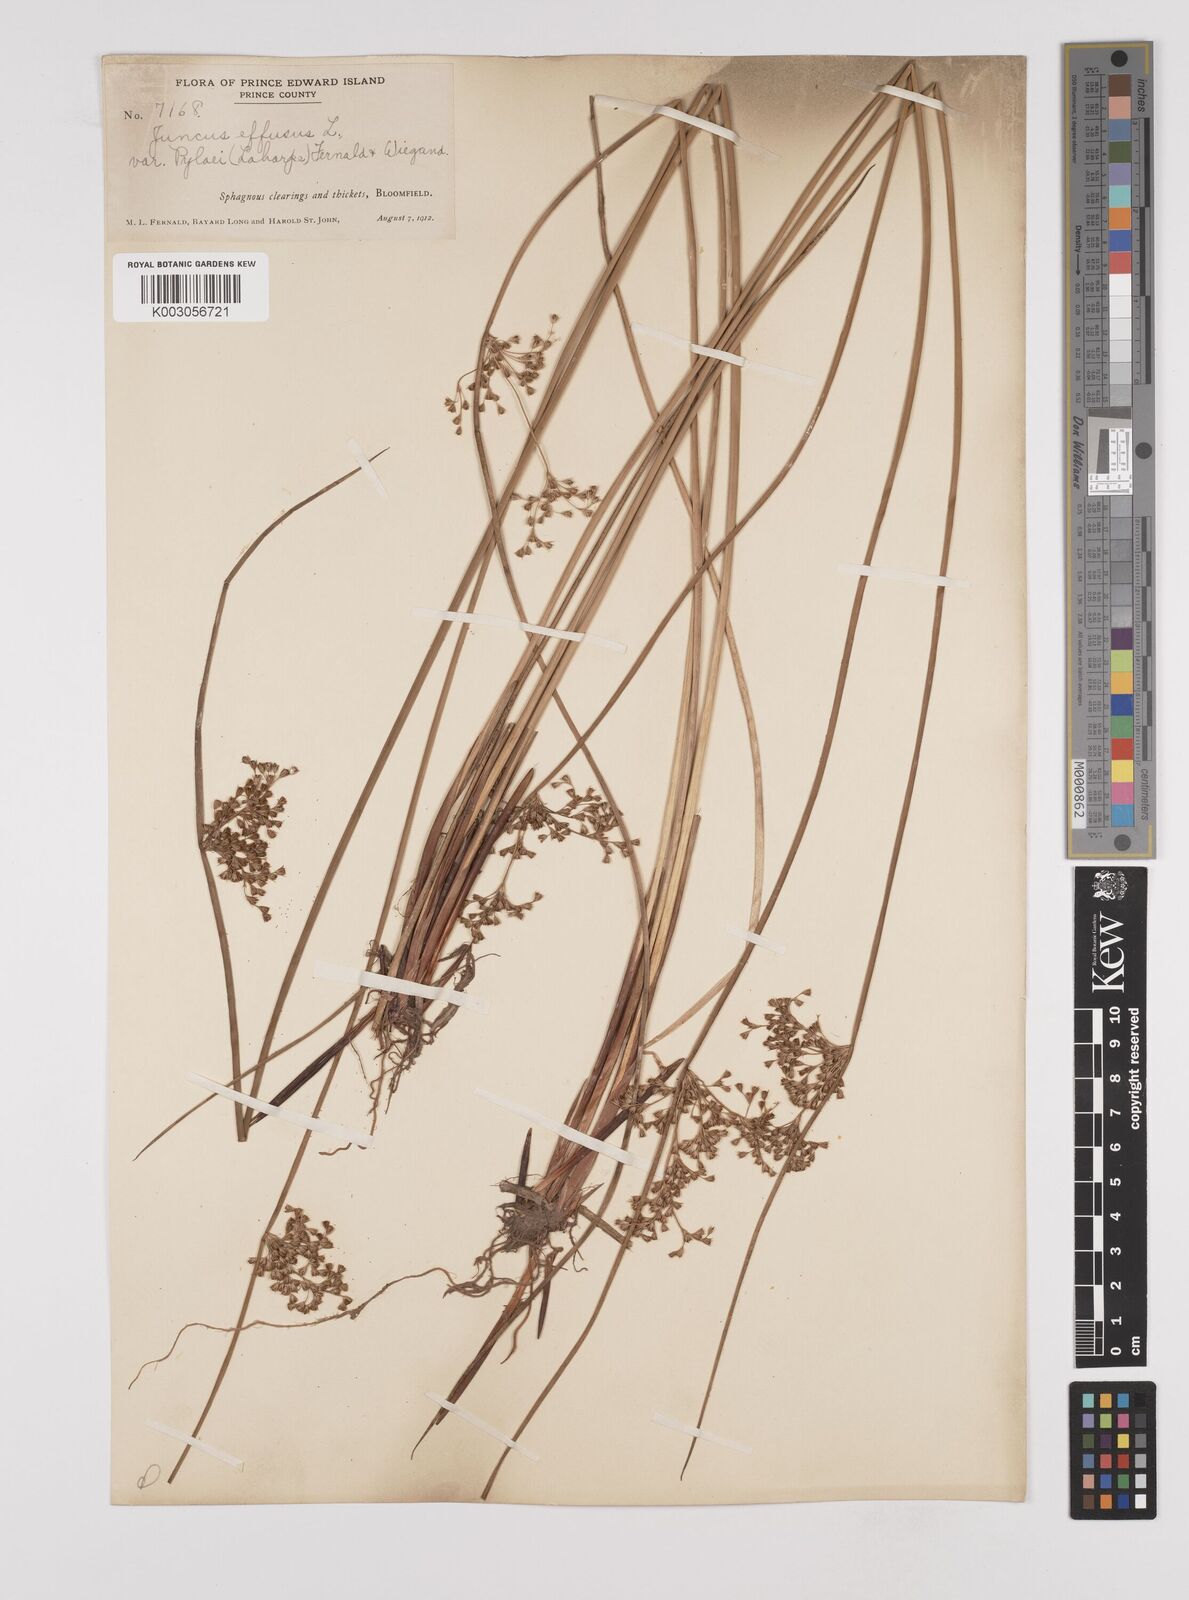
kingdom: Plantae
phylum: Tracheophyta
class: Liliopsida
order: Poales
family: Juncaceae
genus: Juncus
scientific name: Juncus pylaei
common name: Common rush
